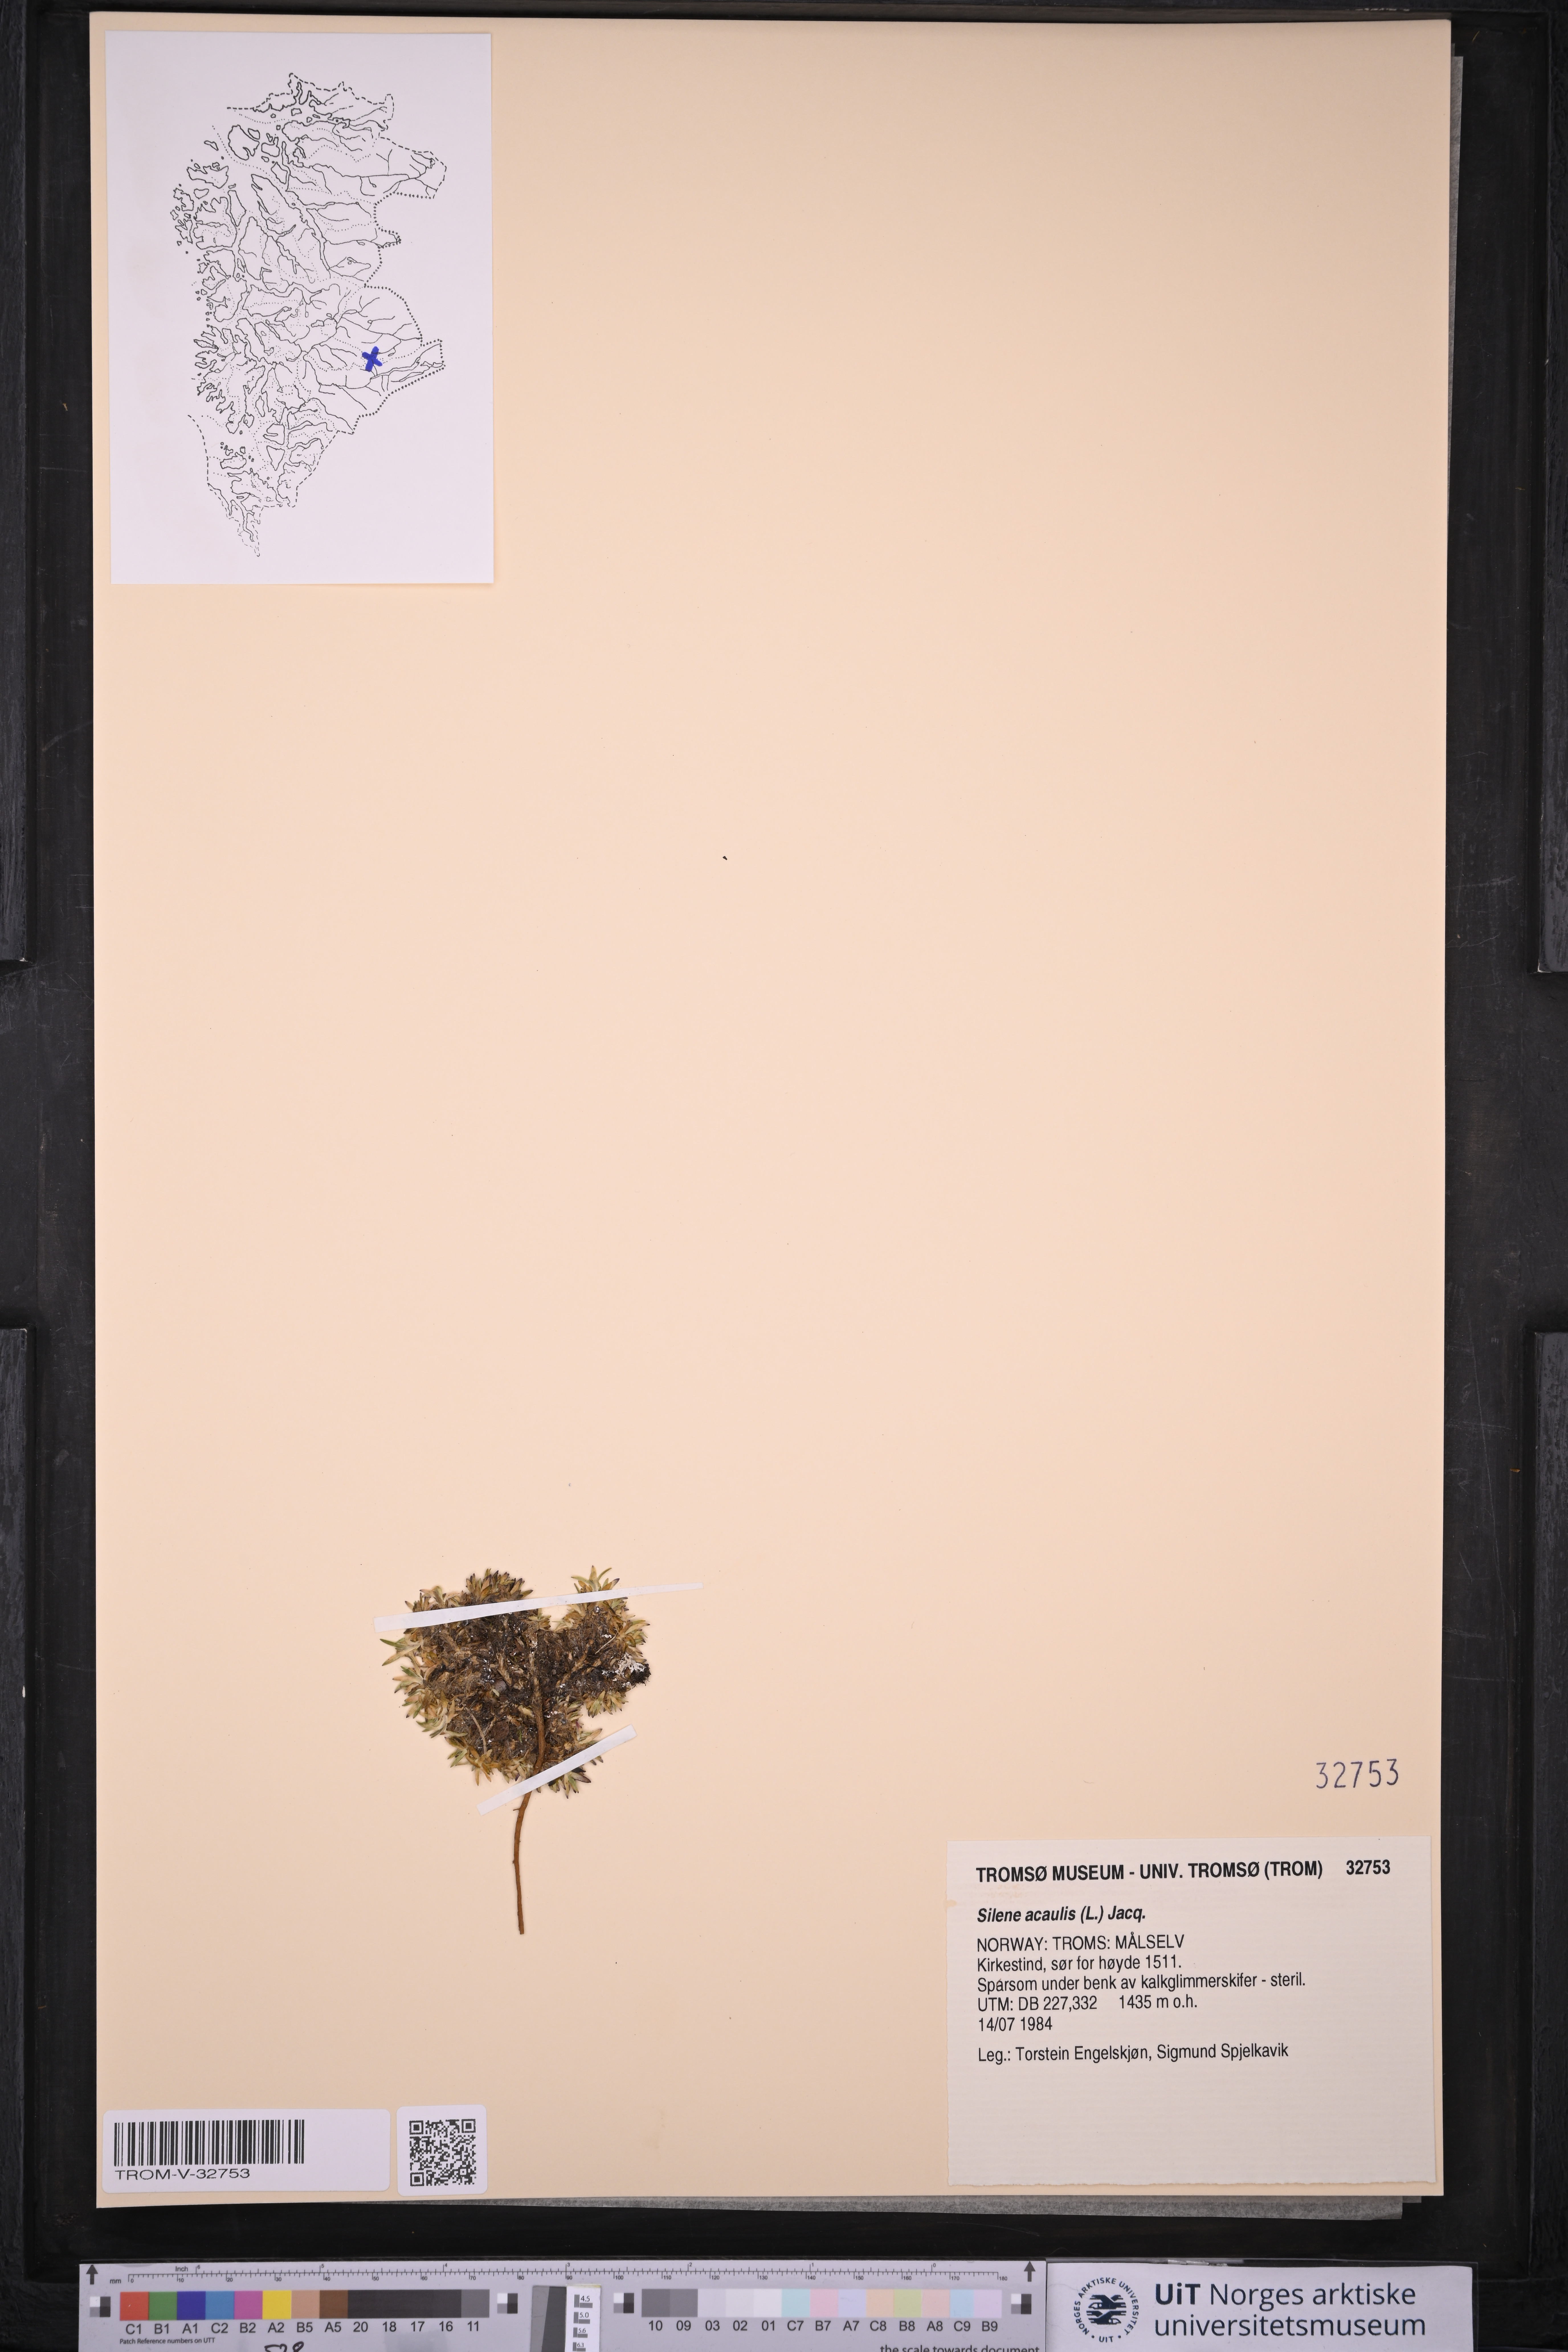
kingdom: Plantae
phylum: Tracheophyta
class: Magnoliopsida
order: Caryophyllales
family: Caryophyllaceae
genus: Silene
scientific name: Silene acaulis
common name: Moss campion
